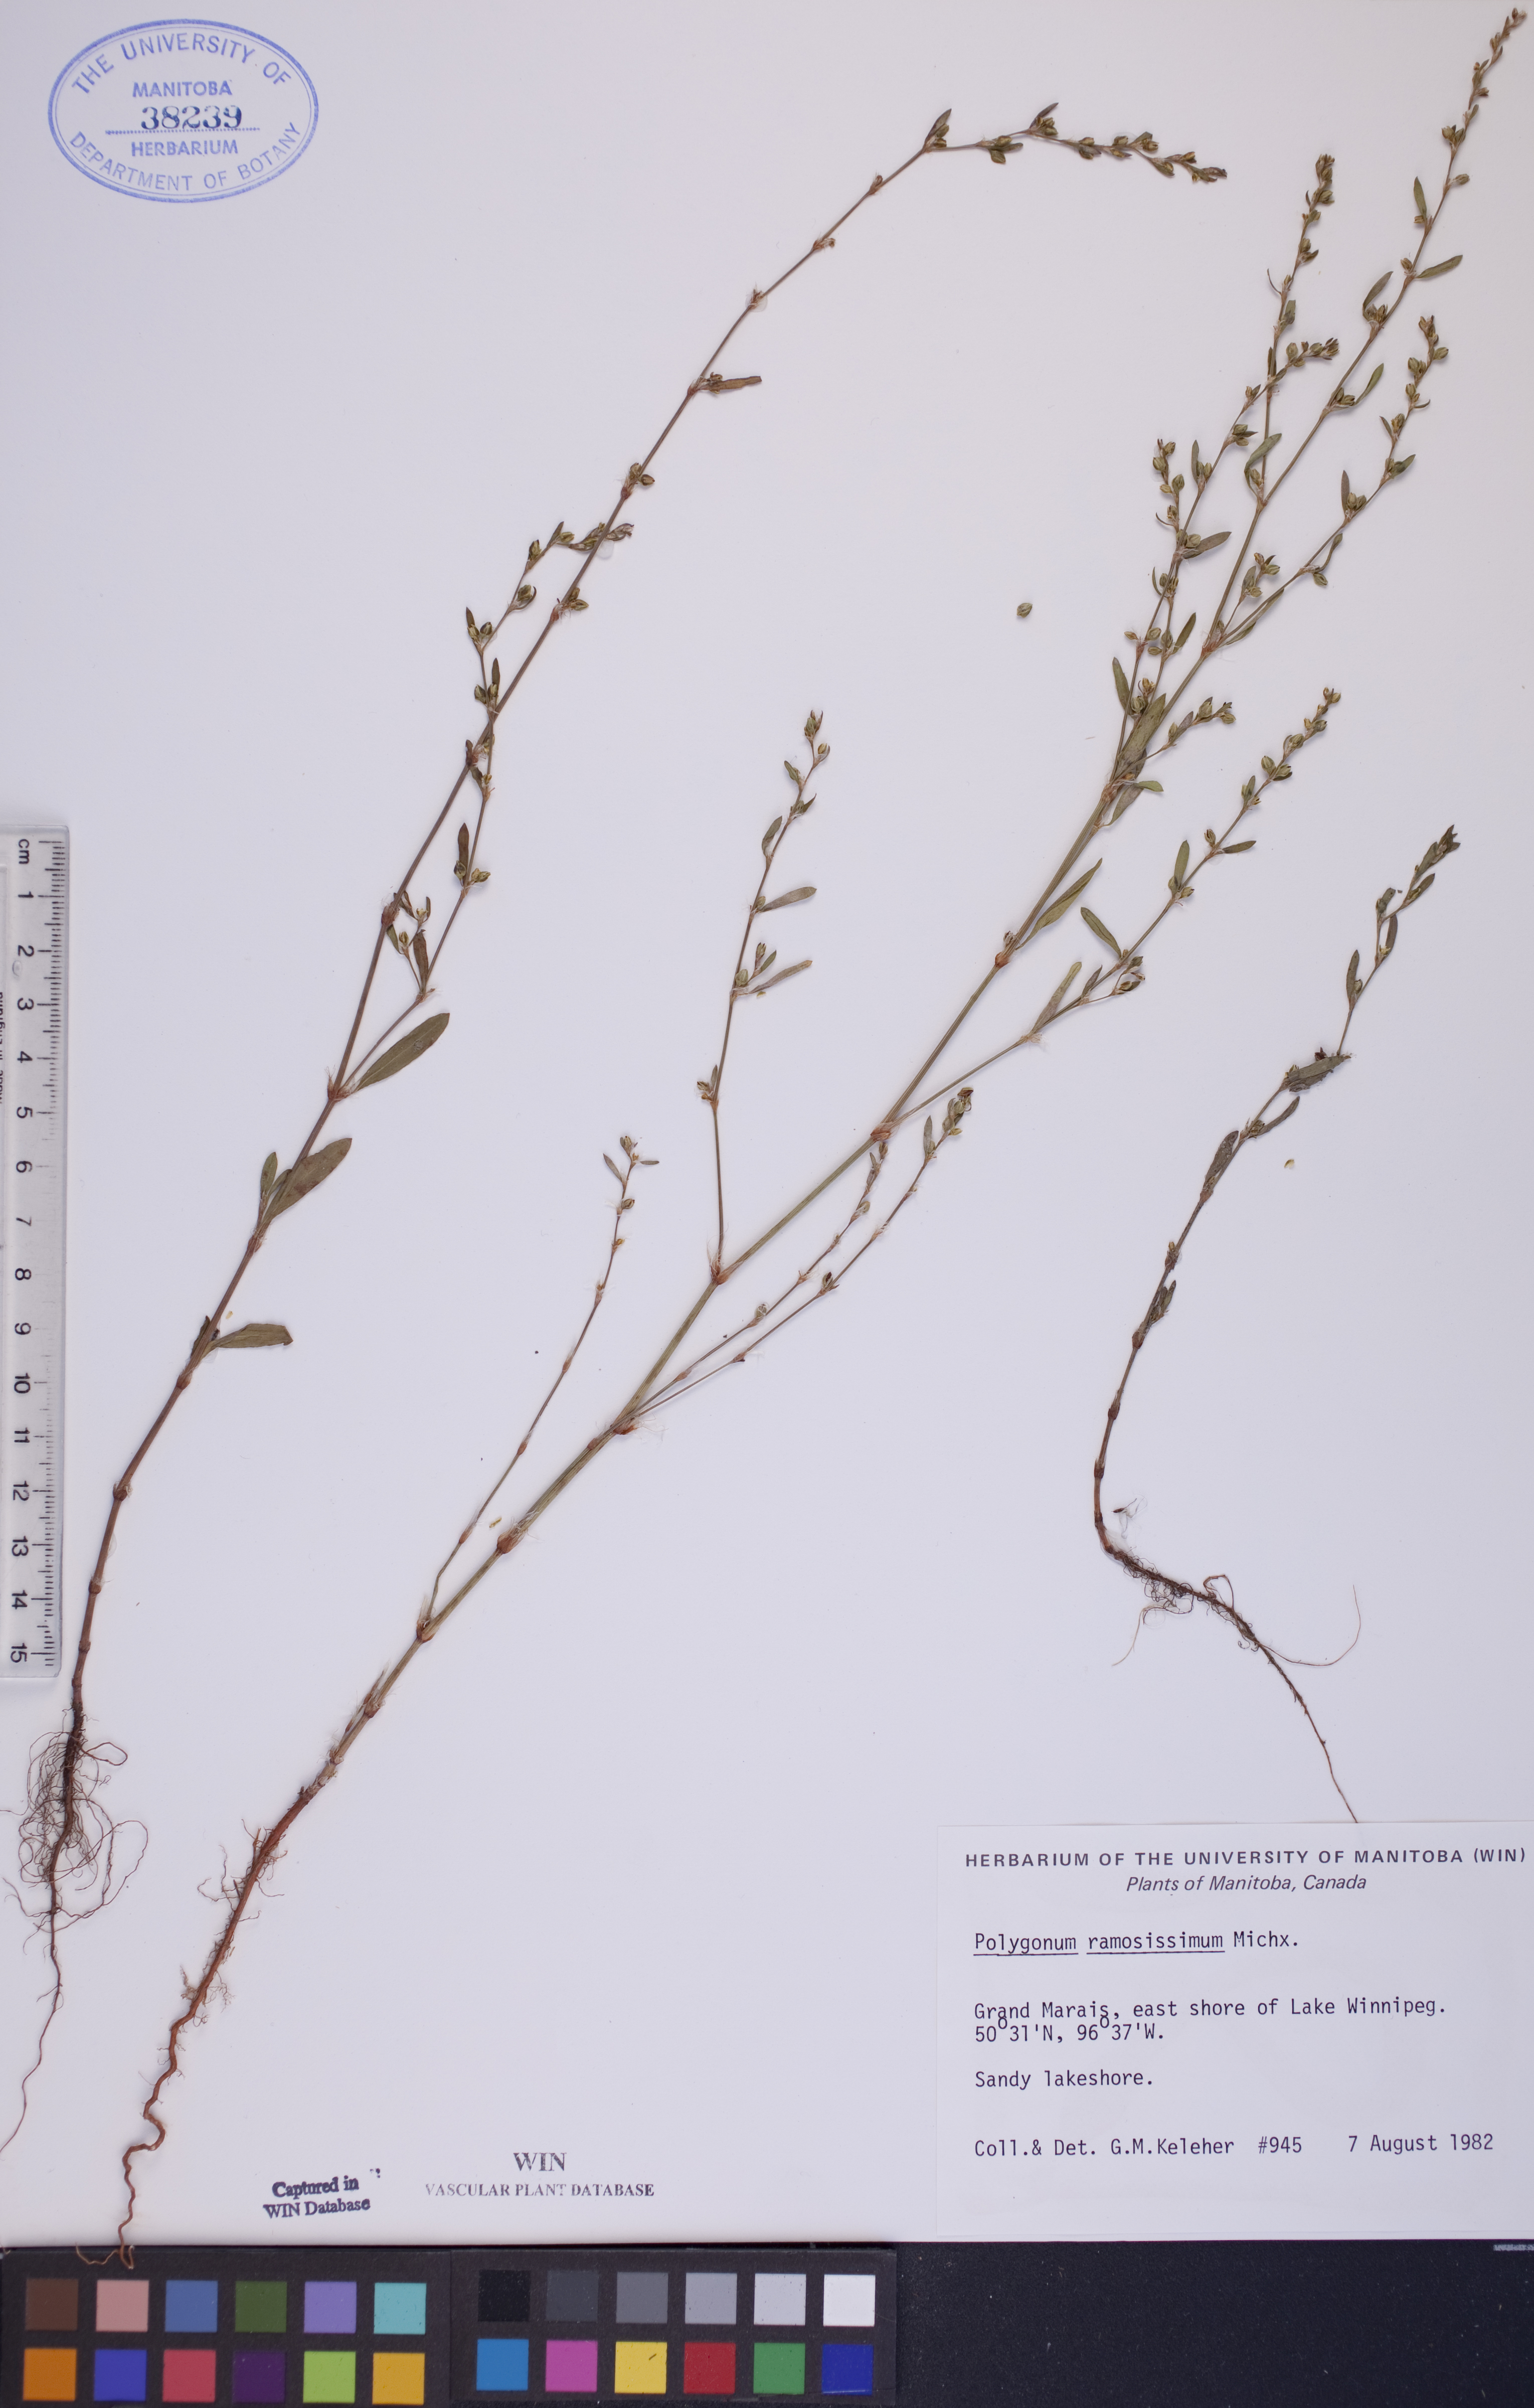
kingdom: Plantae
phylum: Tracheophyta
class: Magnoliopsida
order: Caryophyllales
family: Polygonaceae
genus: Polygonum
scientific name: Polygonum ramosissimum
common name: Bushy knotweed
